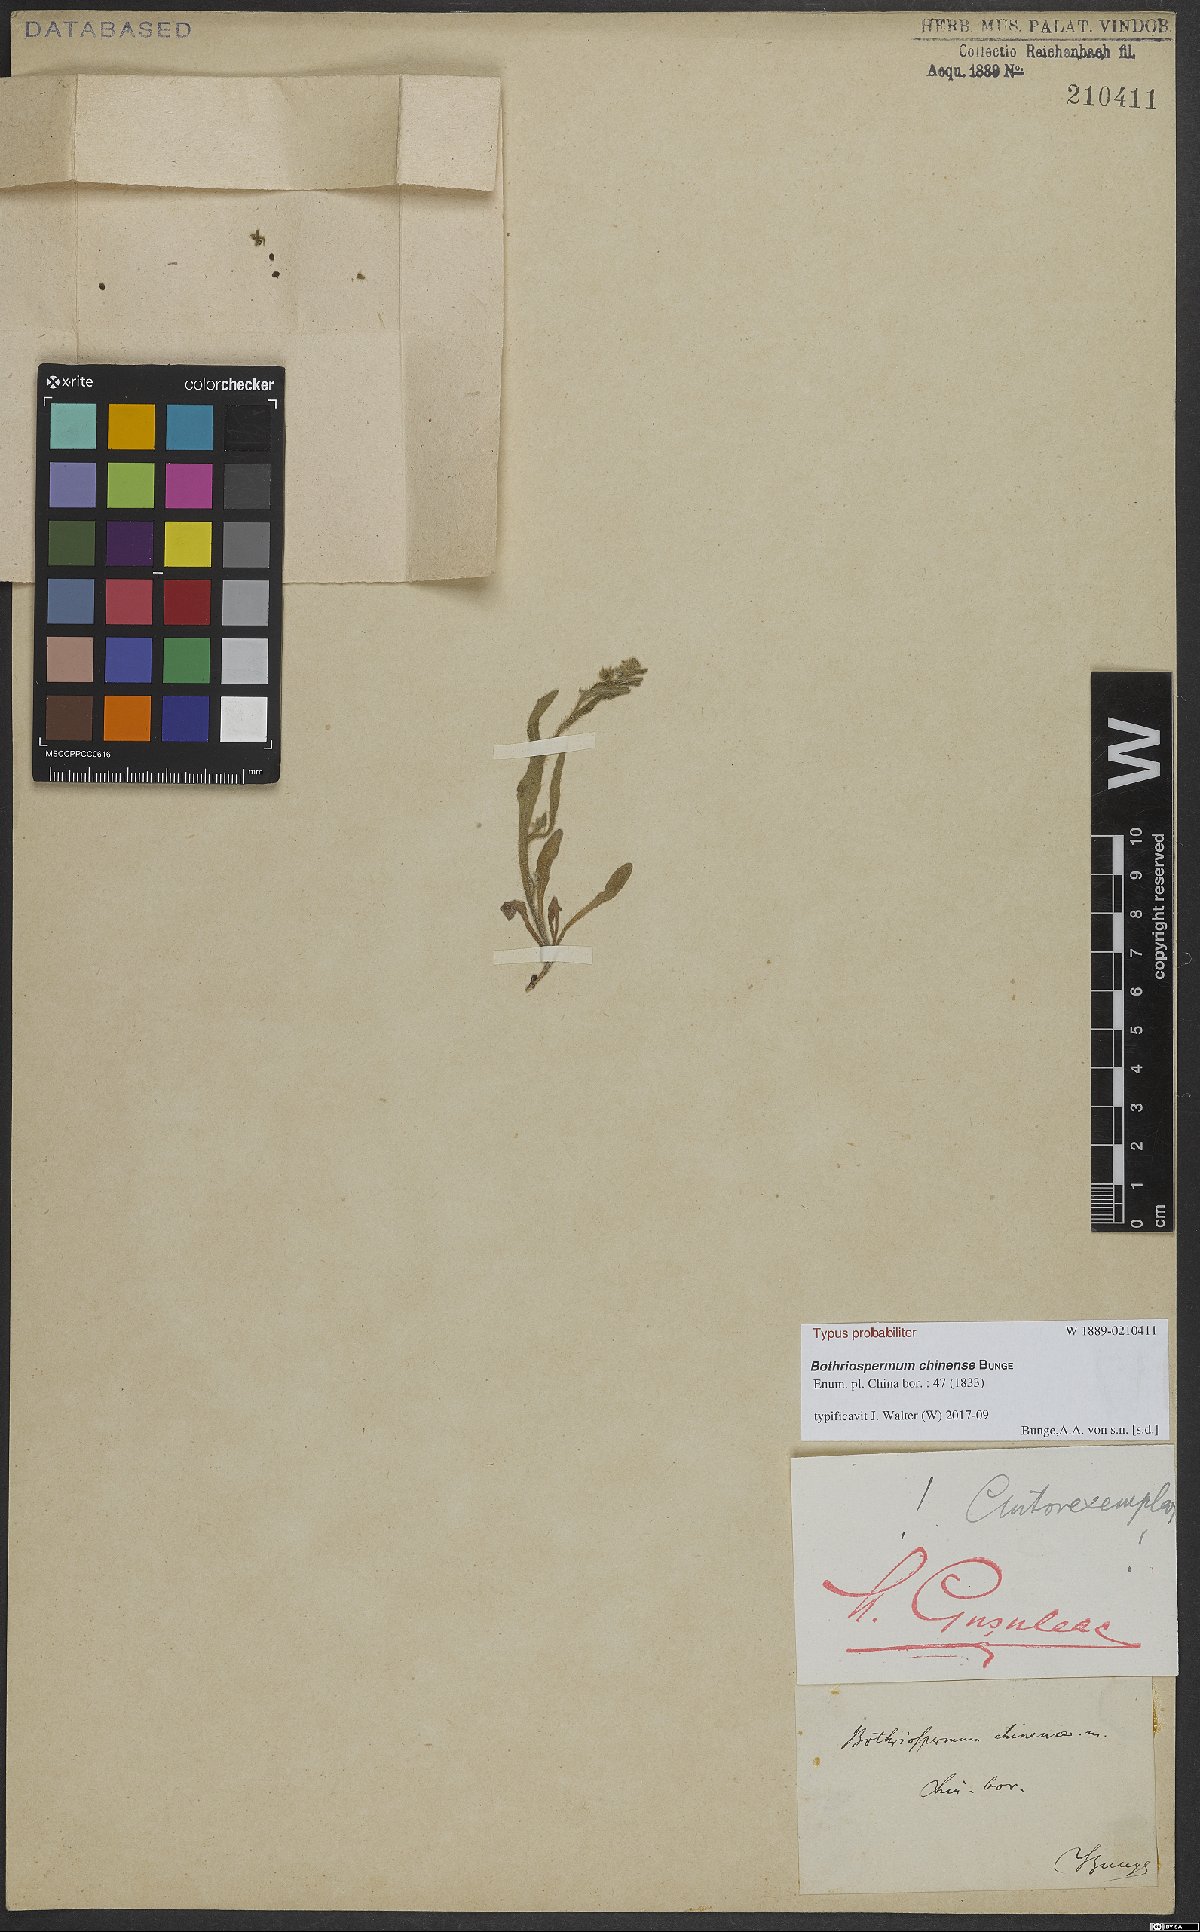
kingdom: Plantae
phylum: Tracheophyta
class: Magnoliopsida
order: Boraginales
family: Boraginaceae
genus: Bothriospermum
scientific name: Bothriospermum chinense
